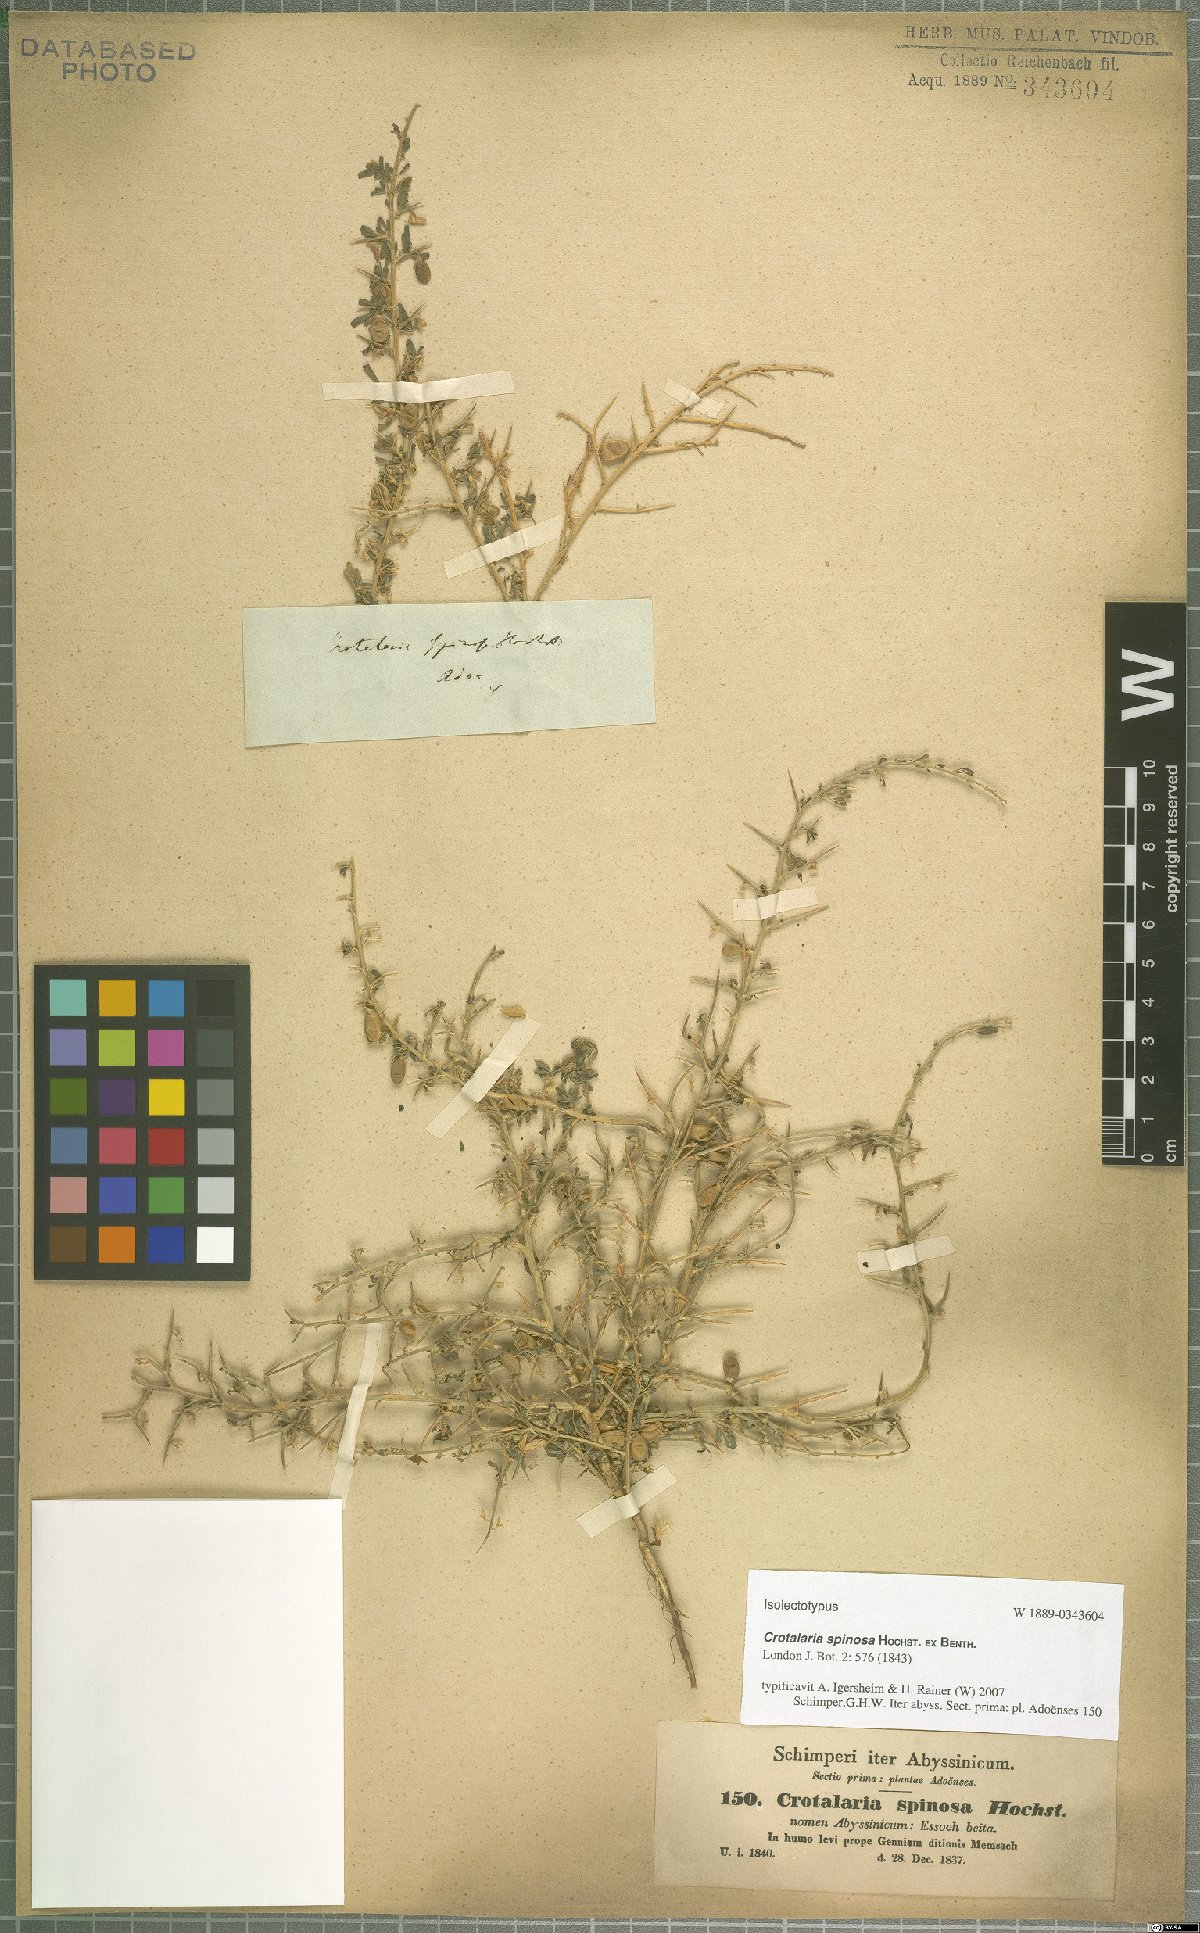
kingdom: Plantae
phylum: Tracheophyta
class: Magnoliopsida
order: Fabales
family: Fabaceae
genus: Crotalaria
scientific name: Crotalaria spinosa
